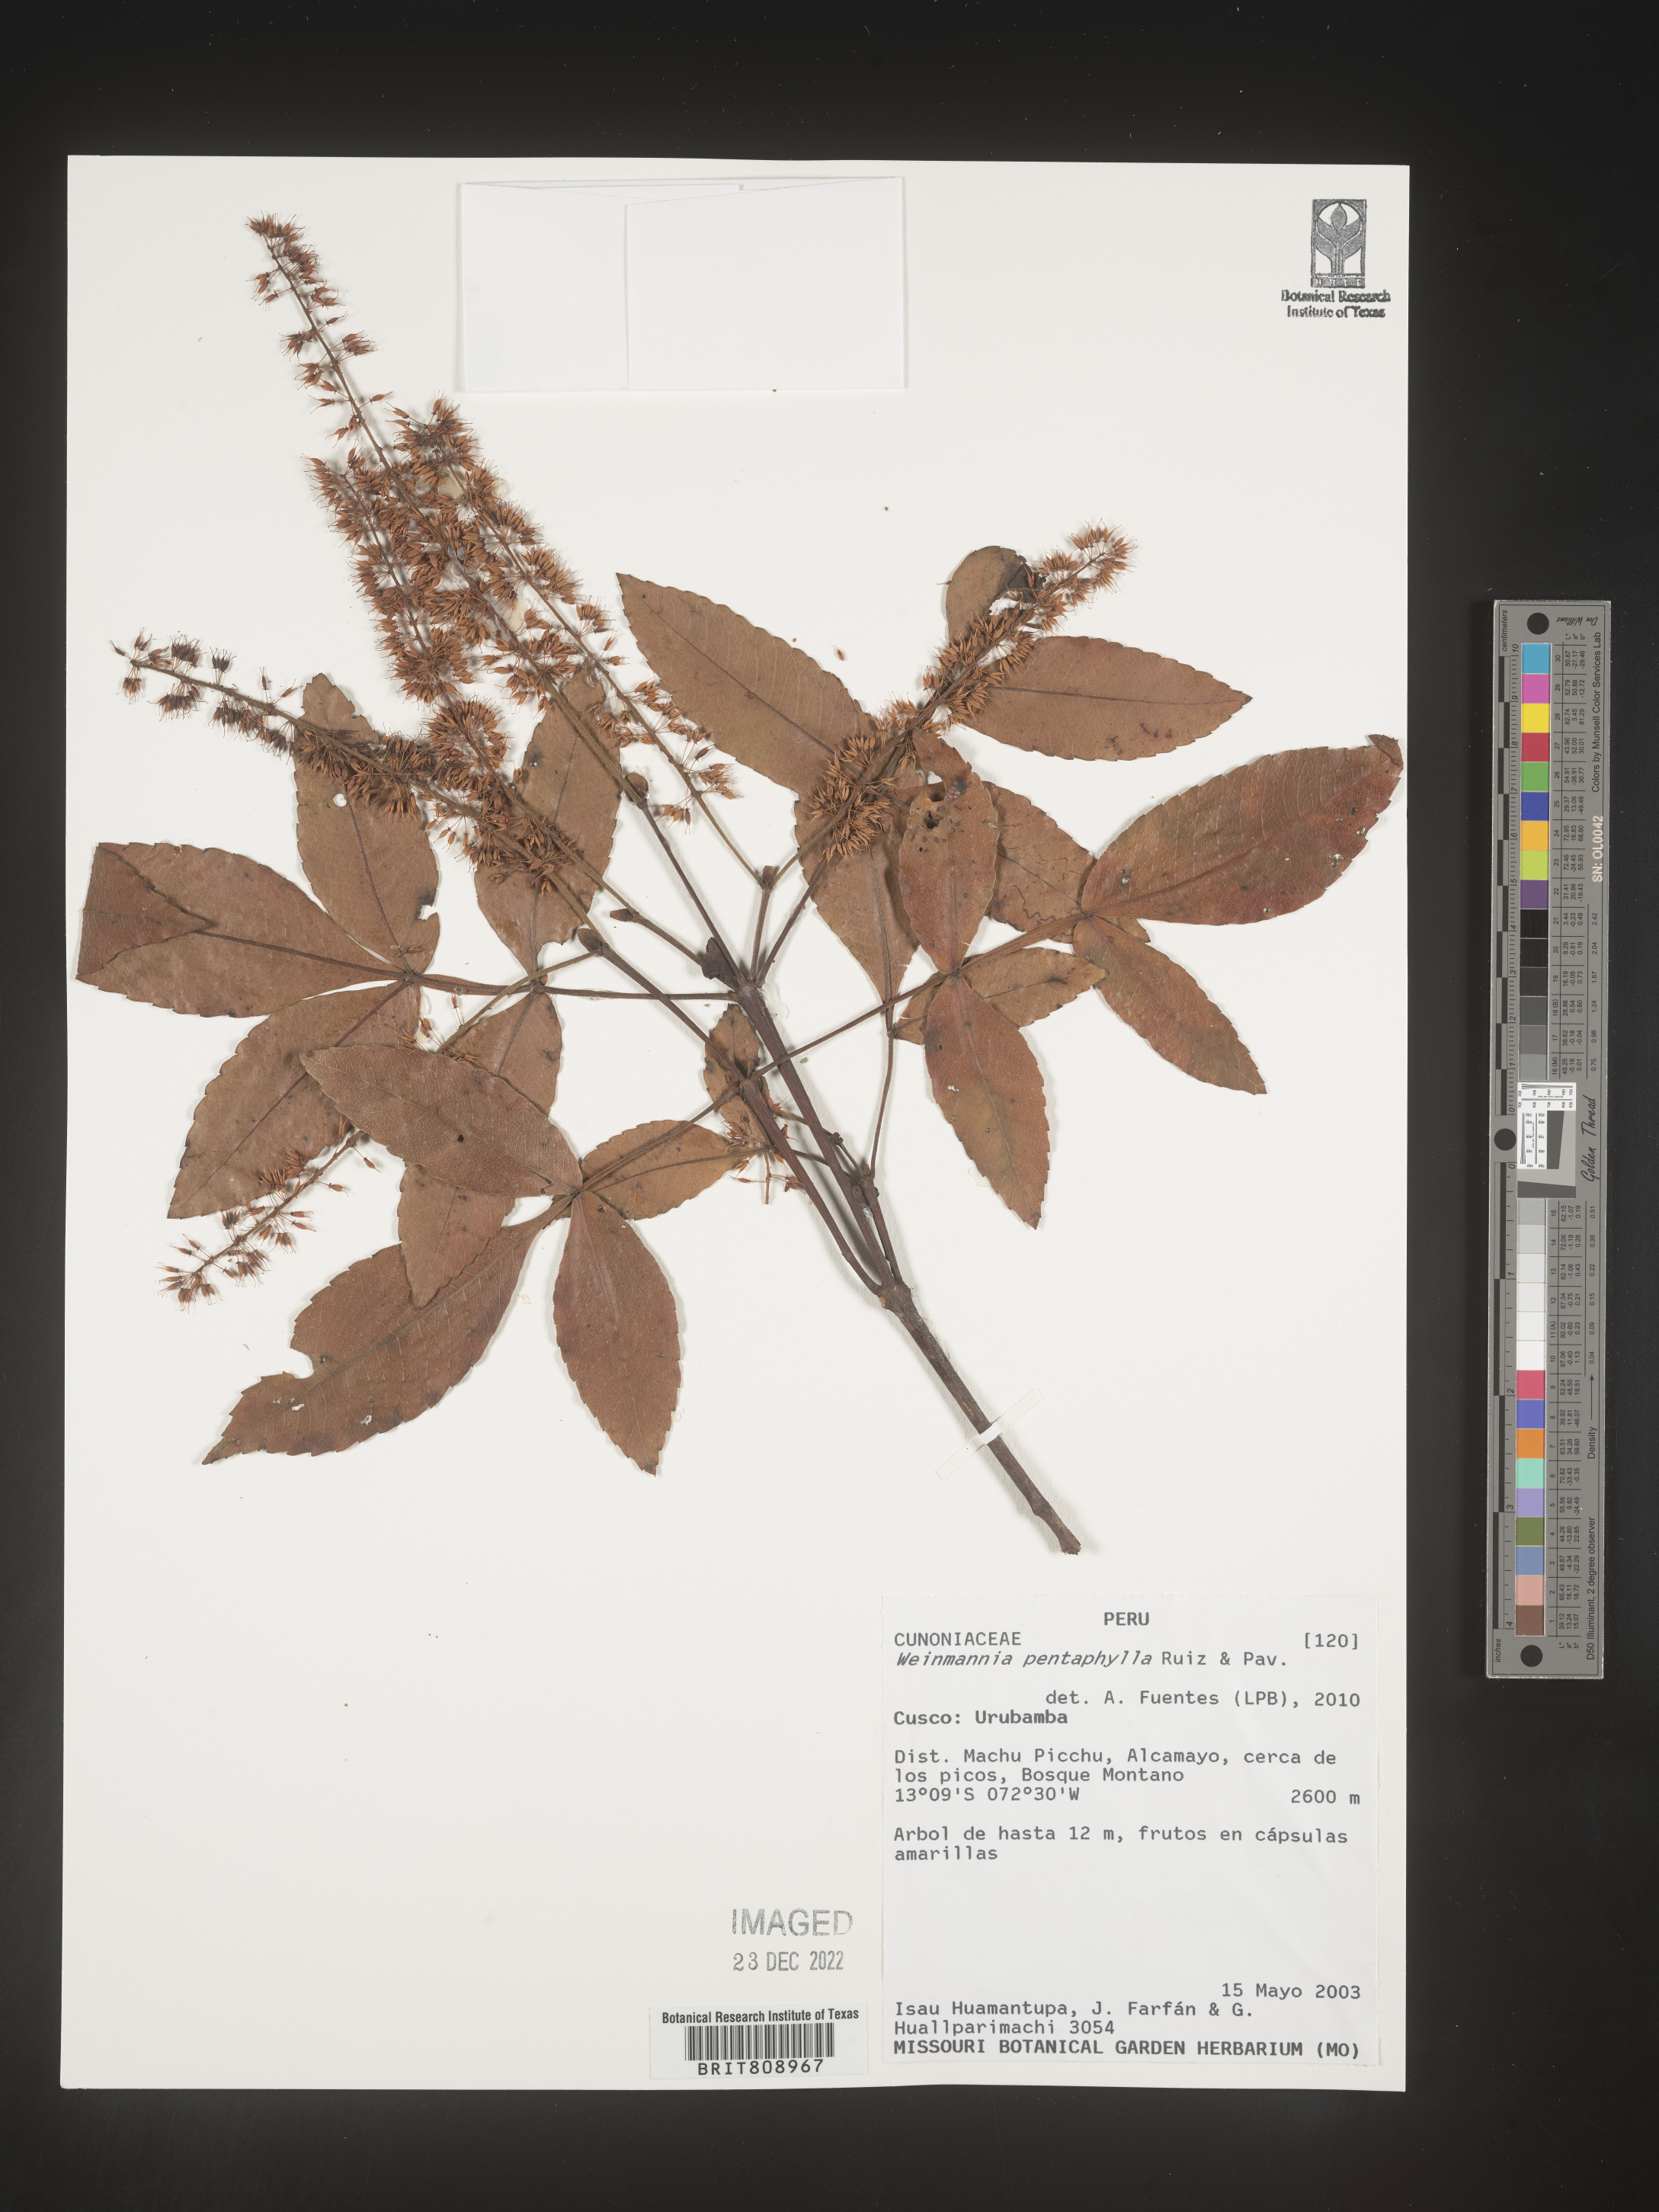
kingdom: Plantae
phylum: Tracheophyta
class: Magnoliopsida
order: Oxalidales
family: Cunoniaceae
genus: Weinmannia
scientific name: Weinmannia
